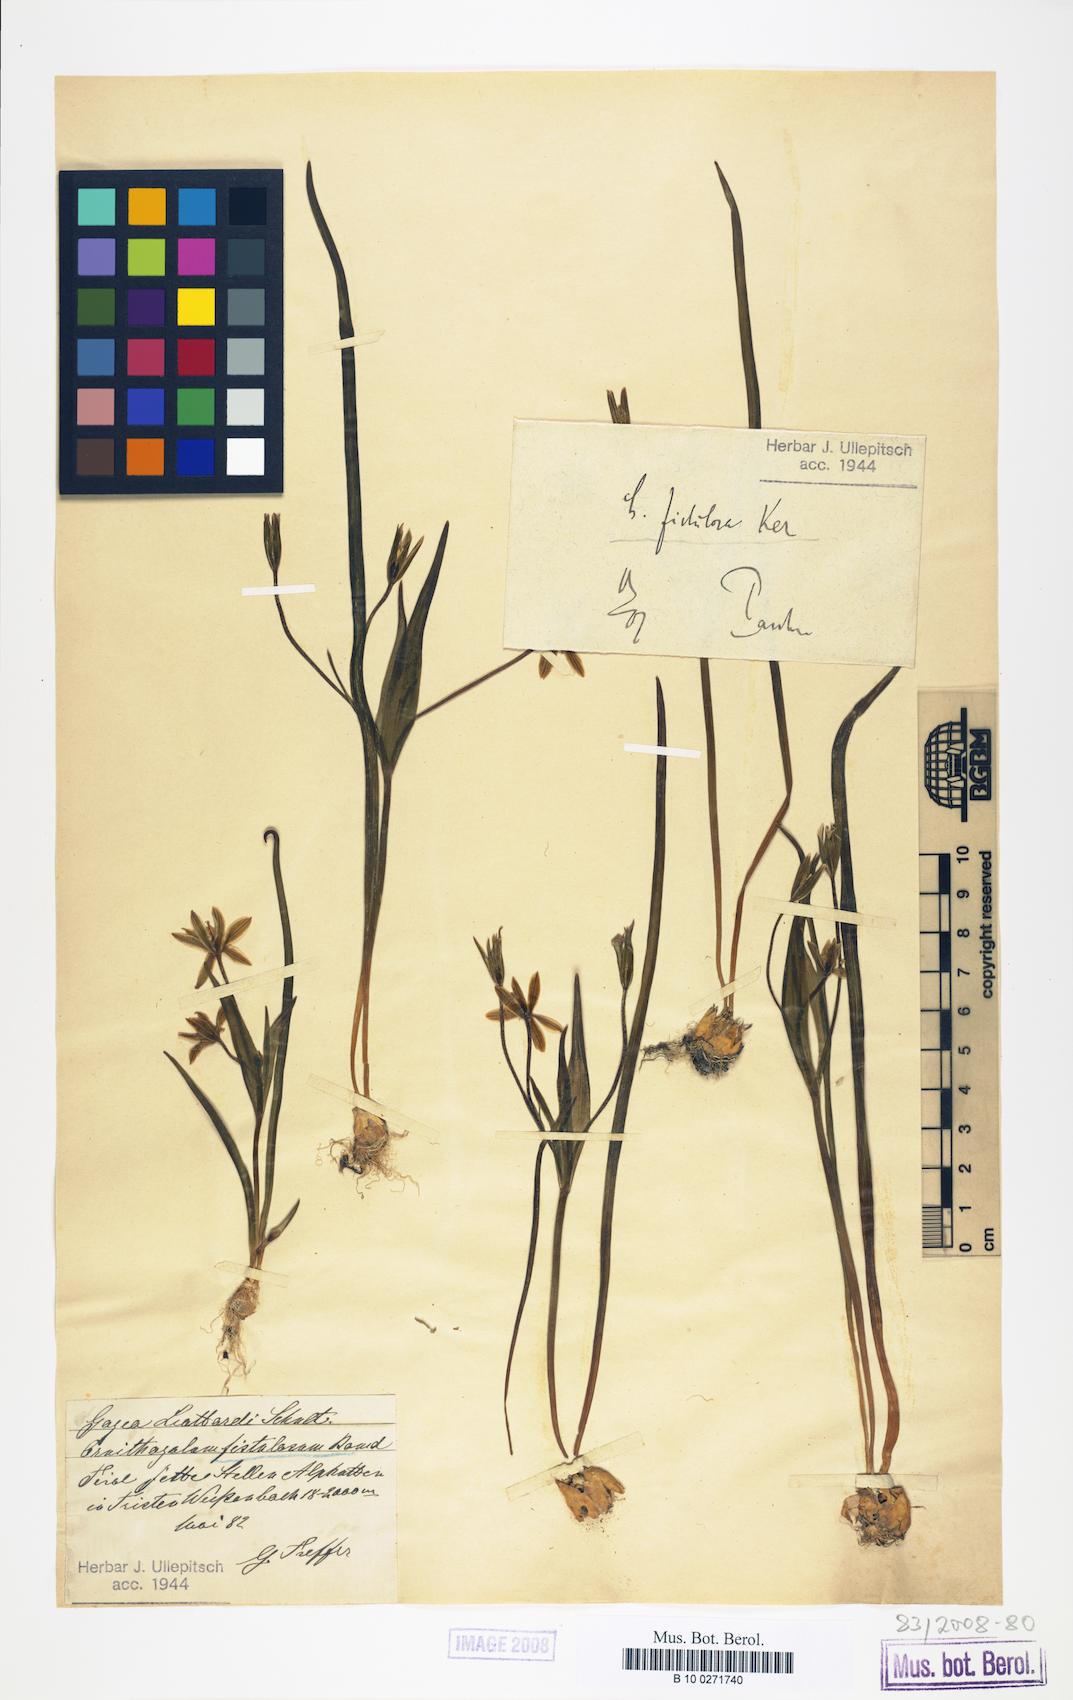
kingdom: Plantae
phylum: Tracheophyta
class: Liliopsida
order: Liliales
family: Liliaceae
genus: Gagea
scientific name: Gagea bohemica
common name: Early star-of-bethlehem
